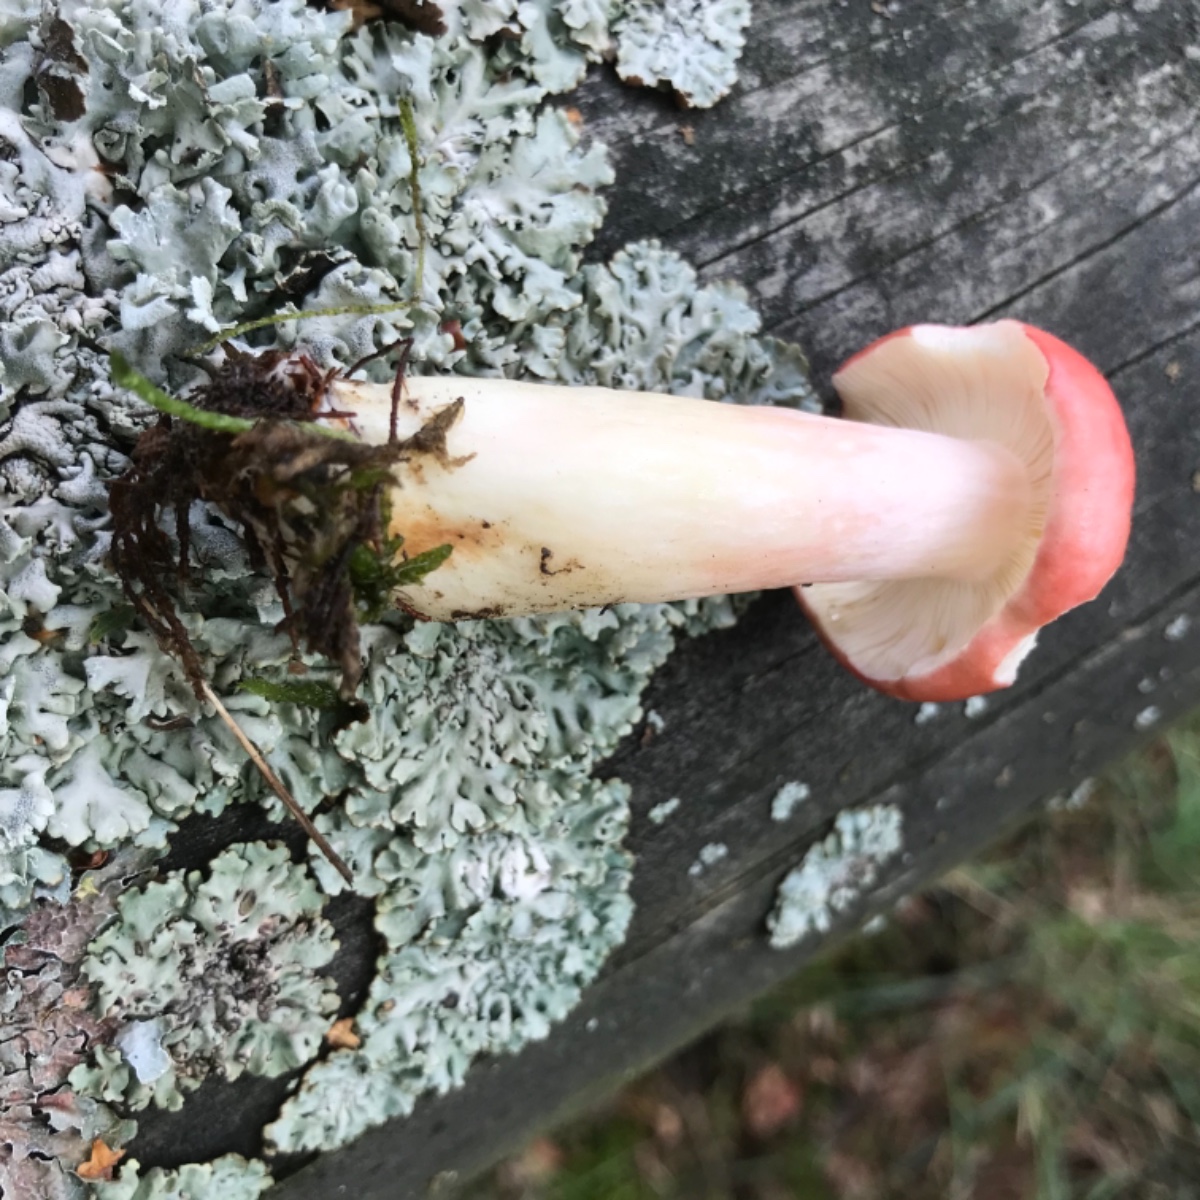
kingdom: Fungi
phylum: Basidiomycota
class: Agaricomycetes
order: Russulales
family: Russulaceae
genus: Russula
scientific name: Russula sanguinea
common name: blodrød skørhat
